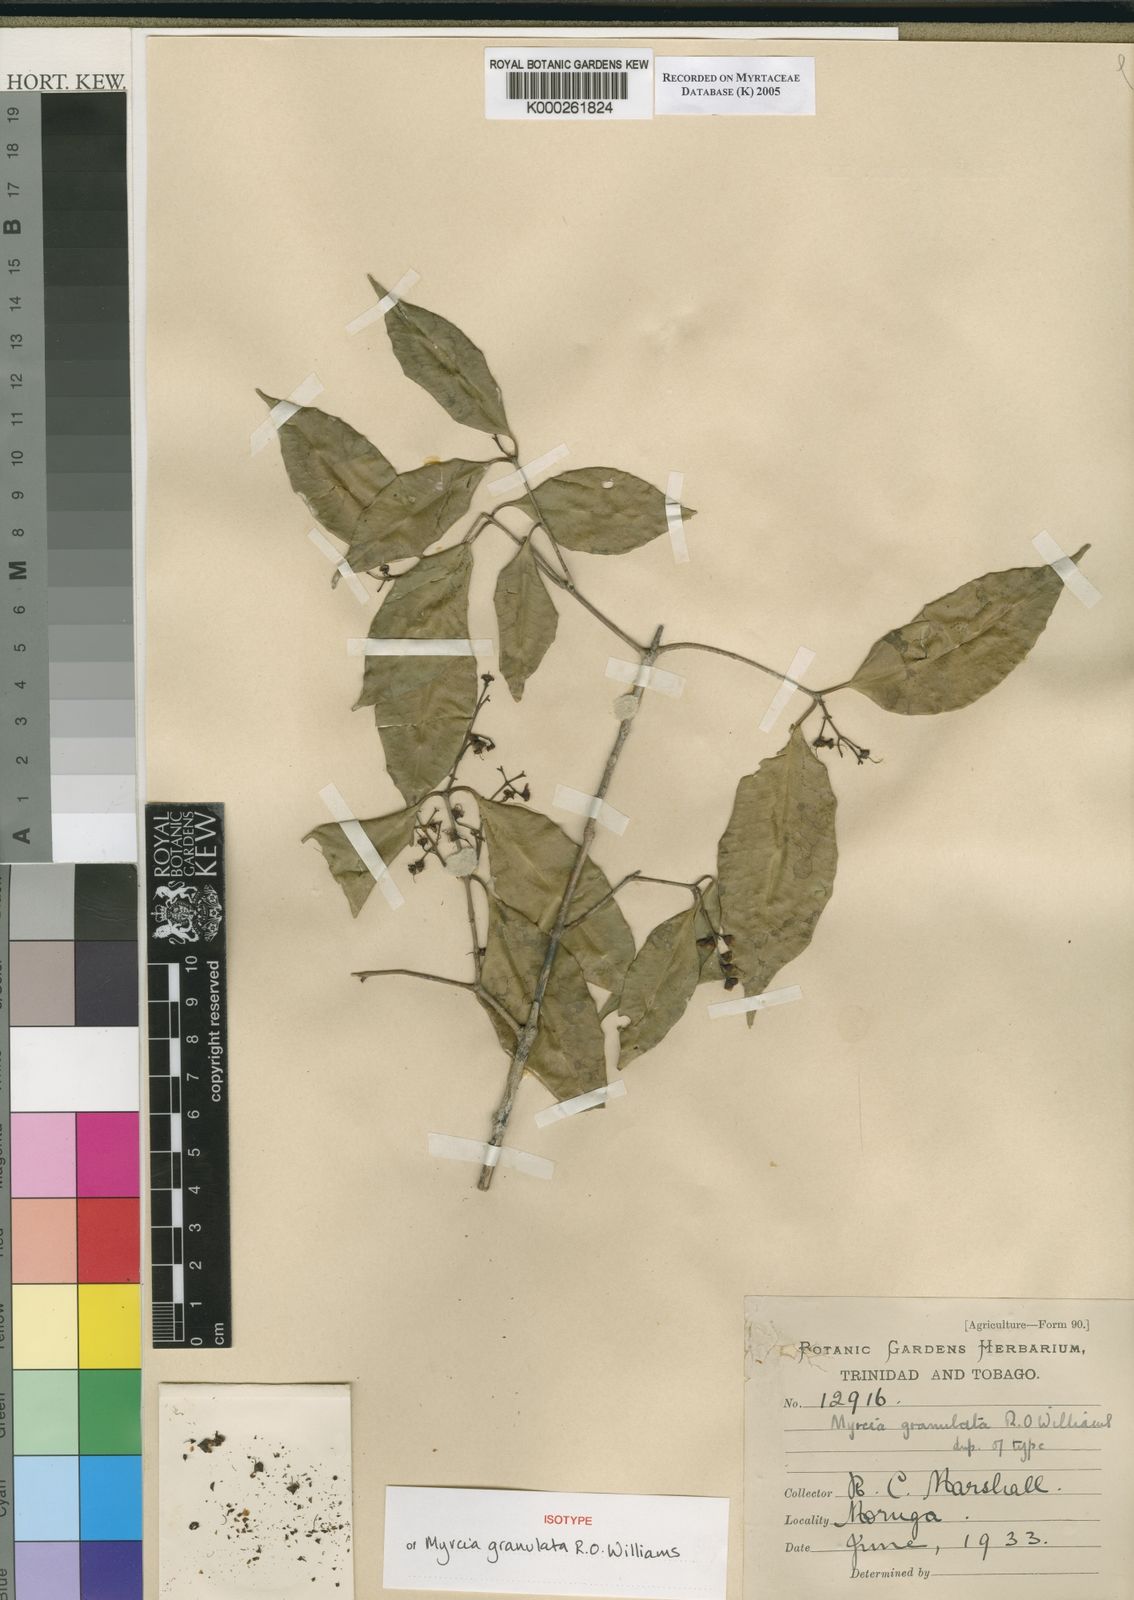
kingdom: Plantae
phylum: Tracheophyta
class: Magnoliopsida
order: Myrtales
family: Myrtaceae
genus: Plinia
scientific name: Plinia rivularis
